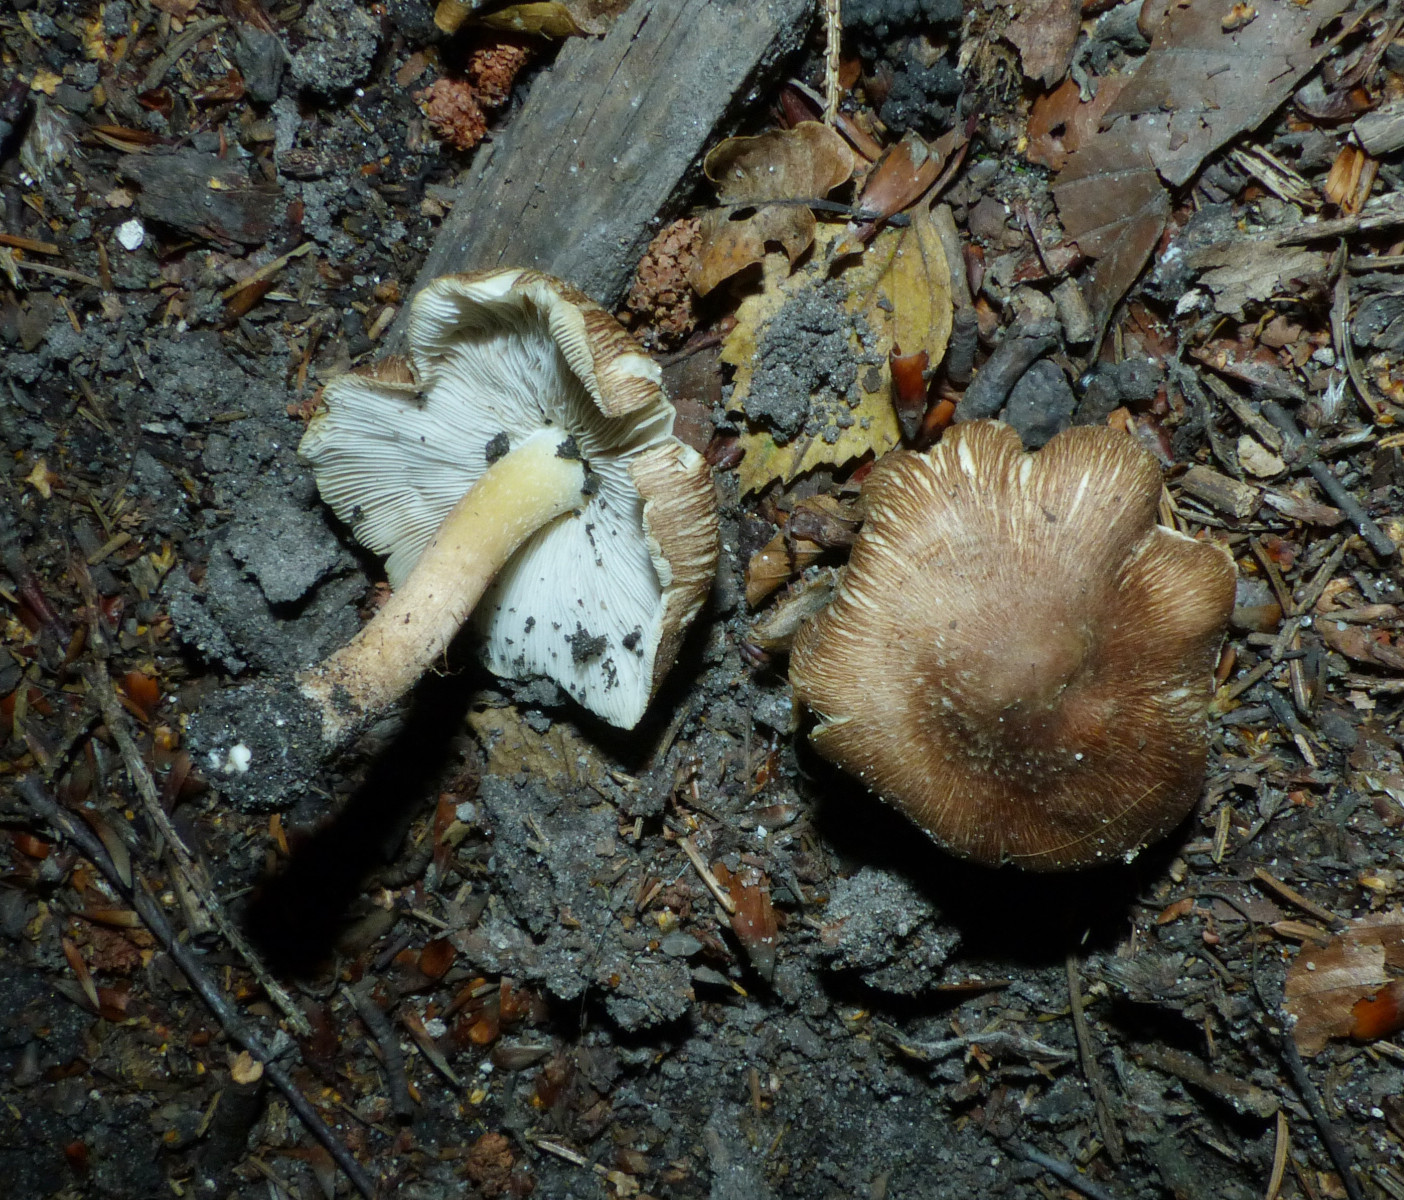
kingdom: Fungi
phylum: Basidiomycota
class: Agaricomycetes
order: Agaricales
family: Inocybaceae
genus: Inosperma
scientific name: Inosperma
